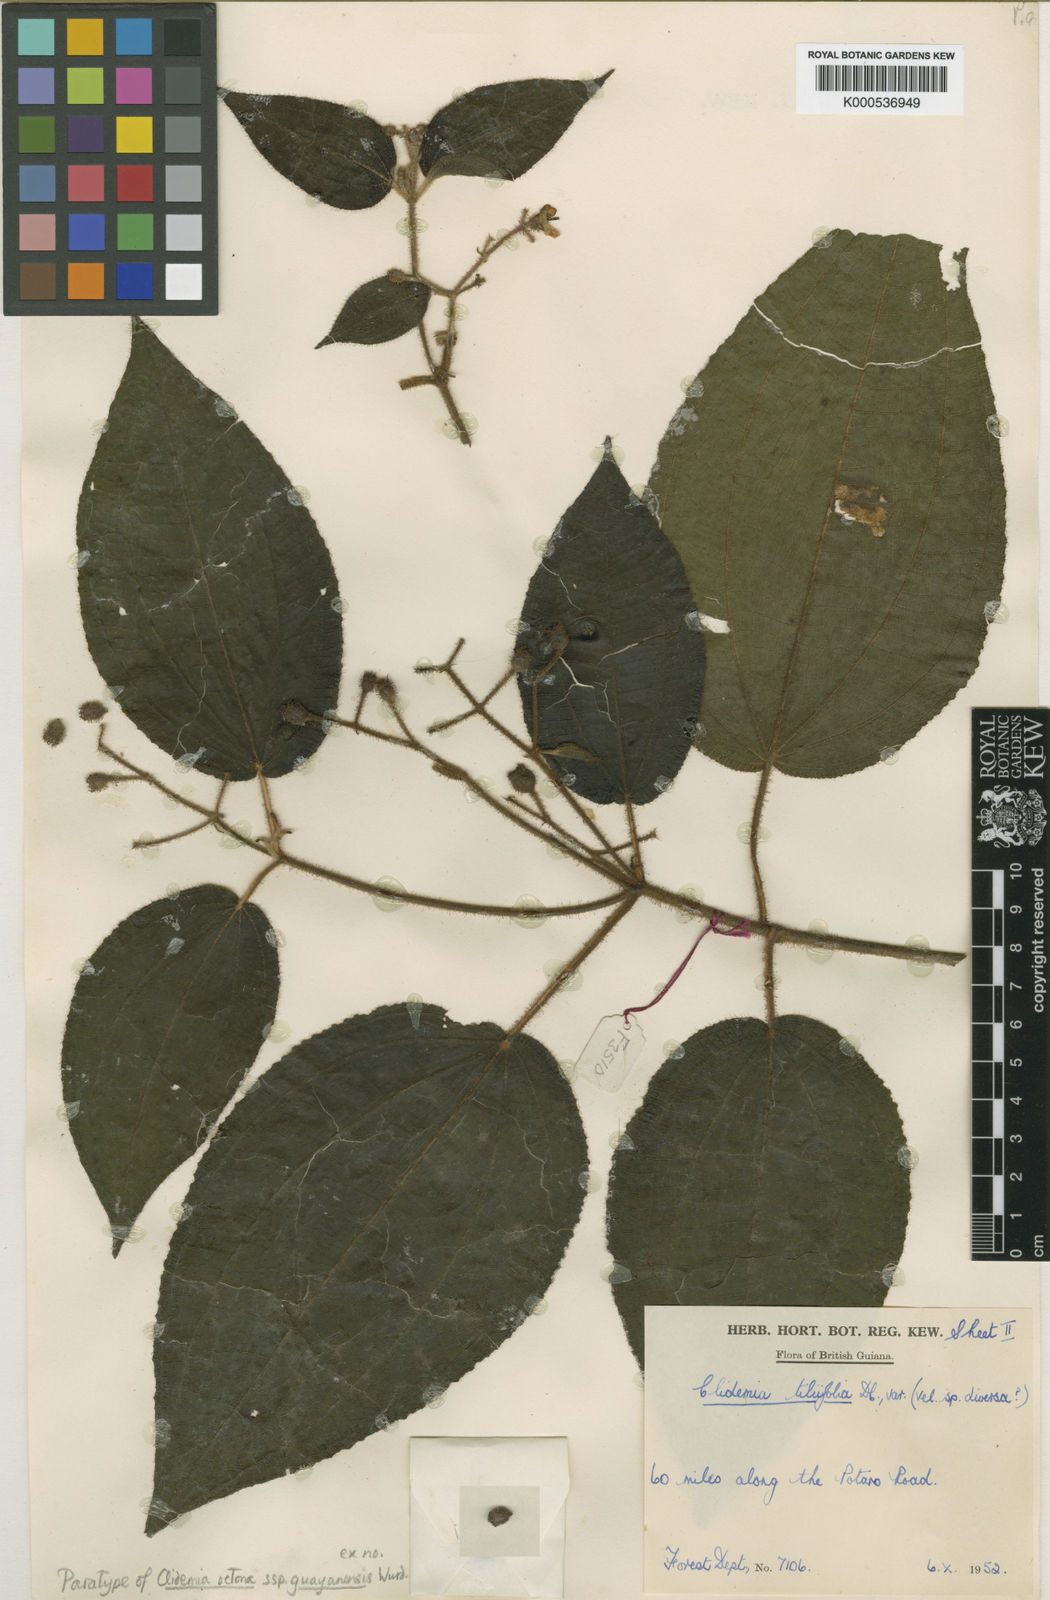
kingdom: Plantae
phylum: Tracheophyta
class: Magnoliopsida
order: Myrtales
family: Melastomataceae
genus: Miconia
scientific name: Miconia octona
